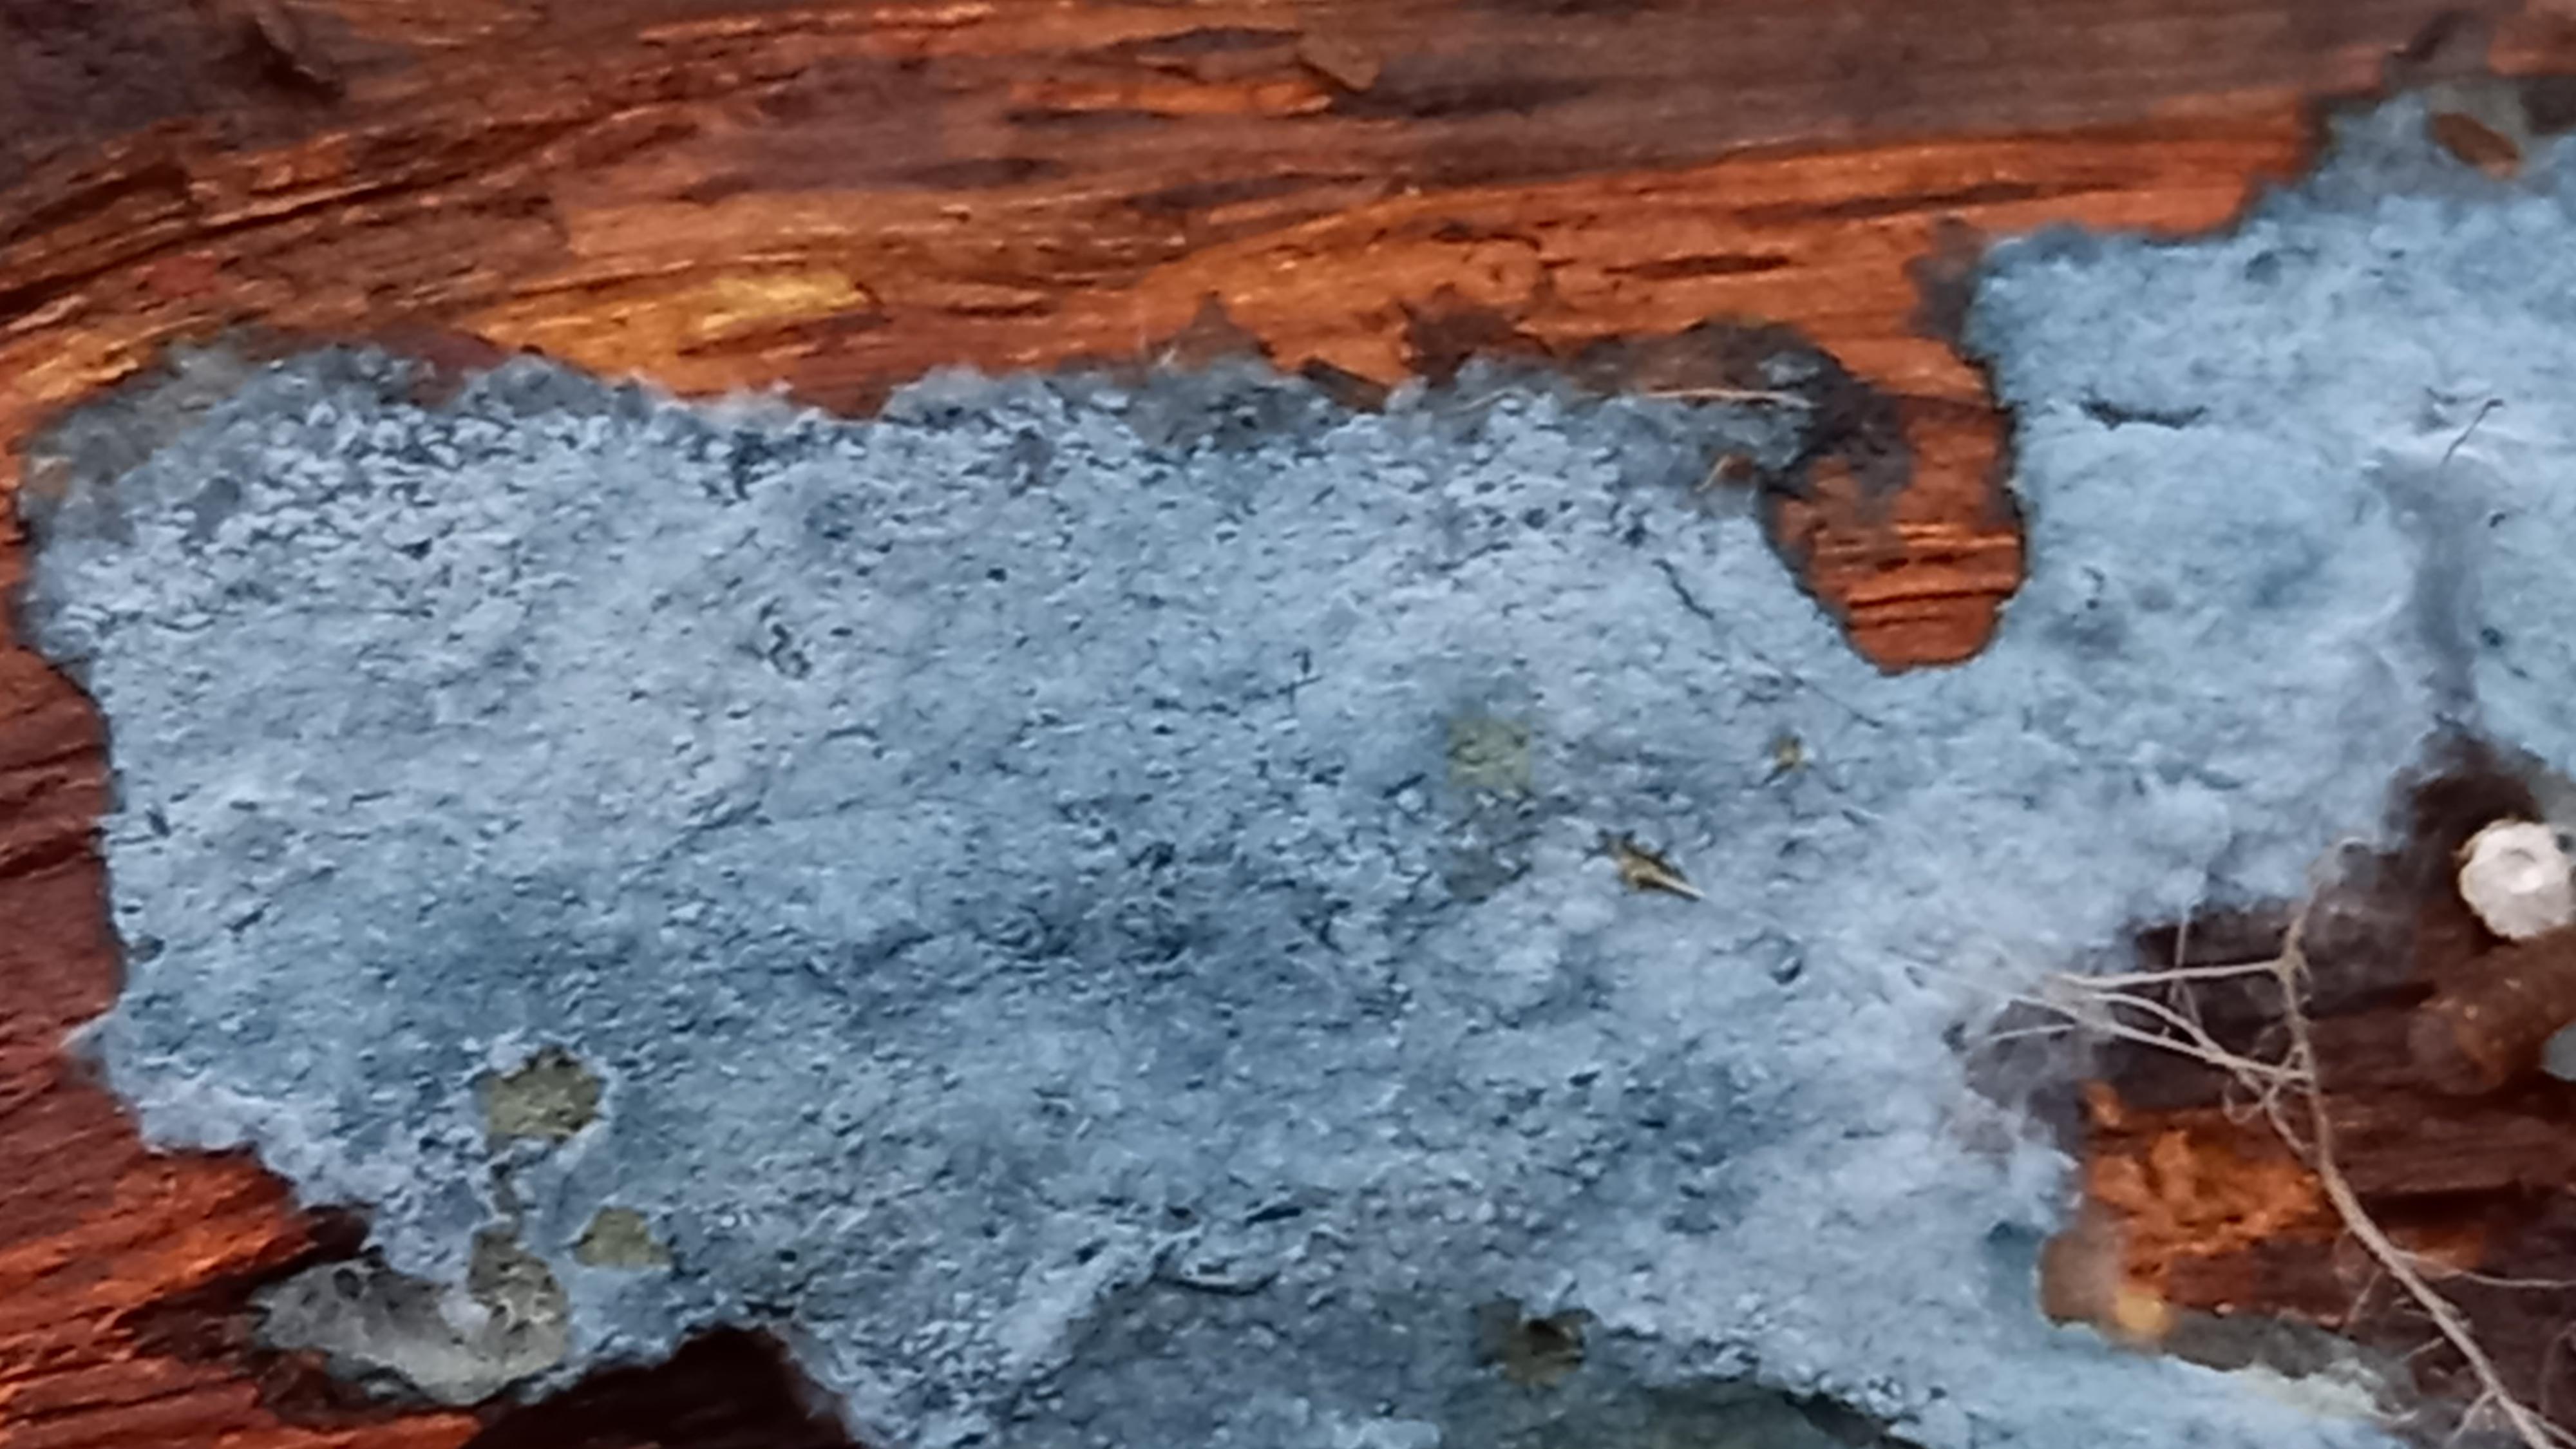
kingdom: Fungi
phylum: Basidiomycota
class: Agaricomycetes
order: Atheliales
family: Atheliaceae
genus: Byssocorticium
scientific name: Byssocorticium atrovirens
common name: blå førnehinde
